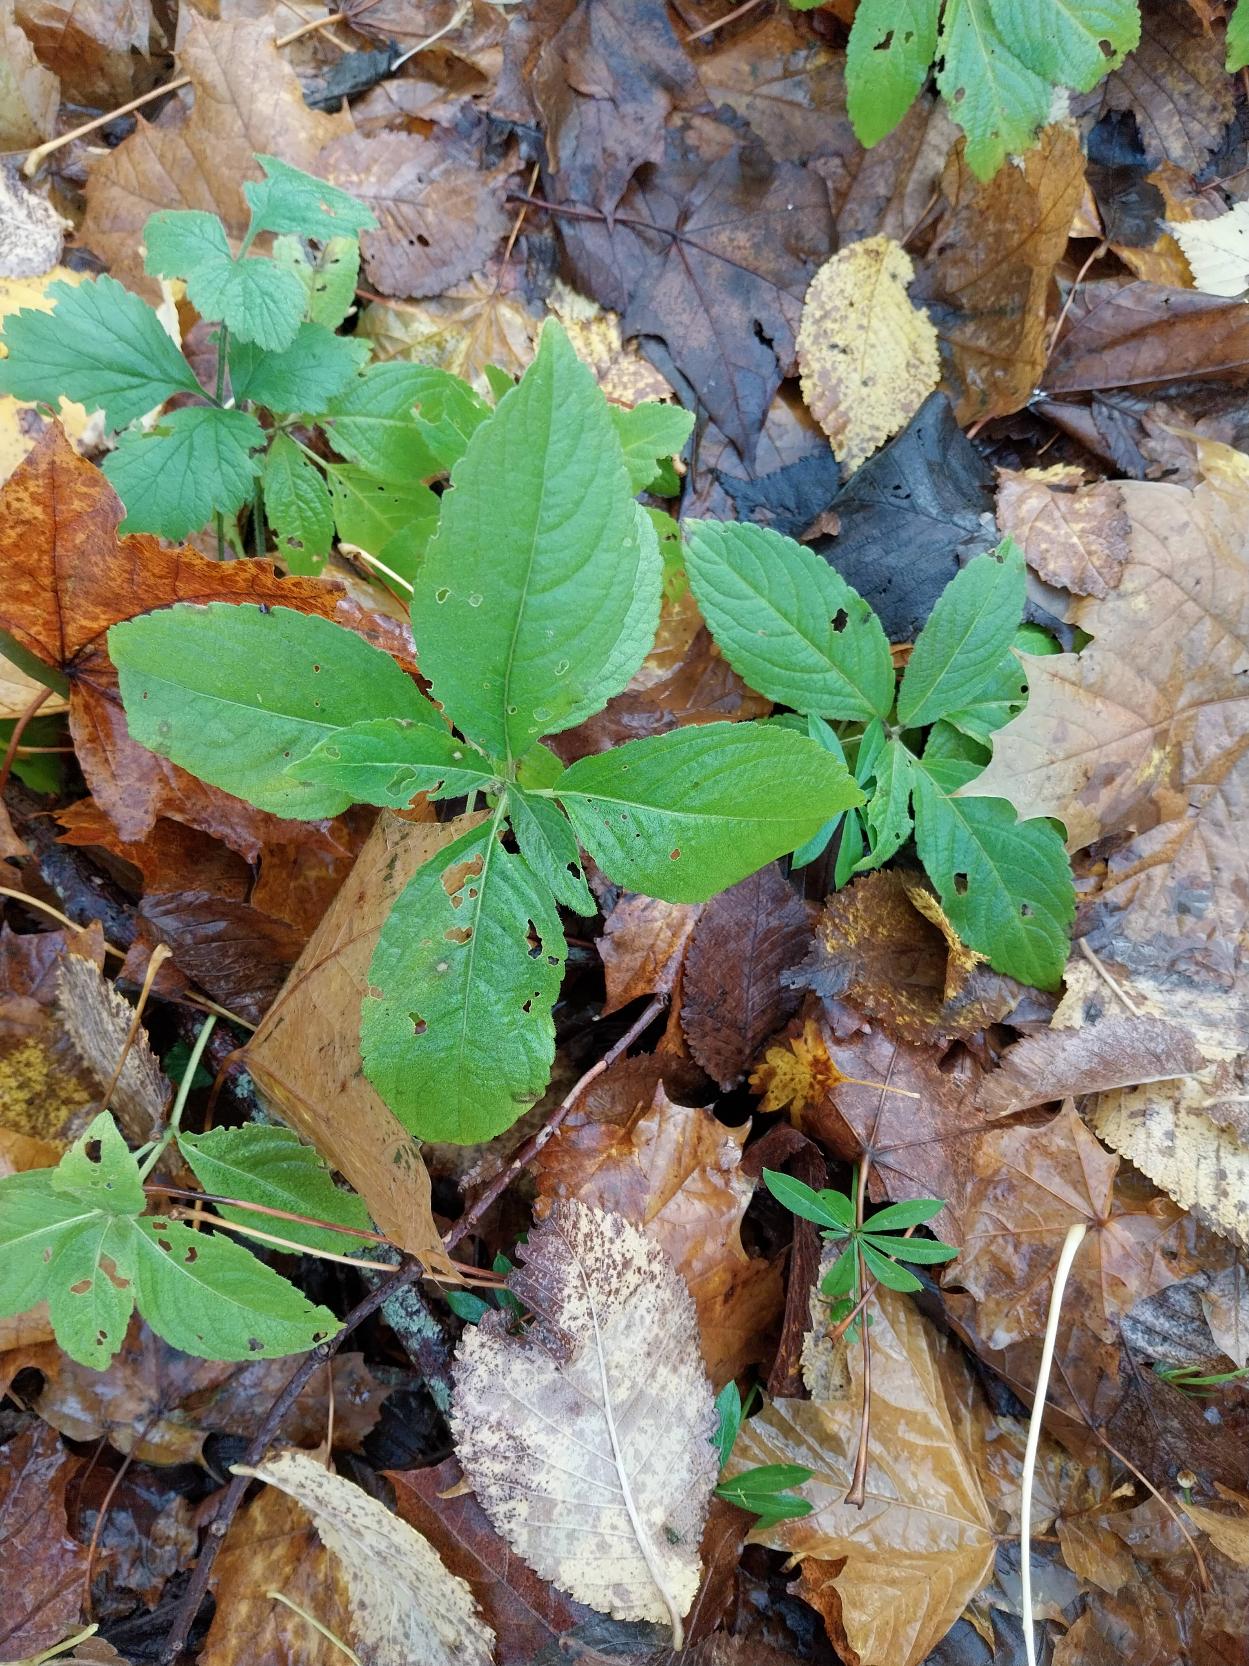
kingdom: Plantae
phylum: Tracheophyta
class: Magnoliopsida
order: Malpighiales
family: Euphorbiaceae
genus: Mercurialis
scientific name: Mercurialis perennis
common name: Almindelig bingelurt
